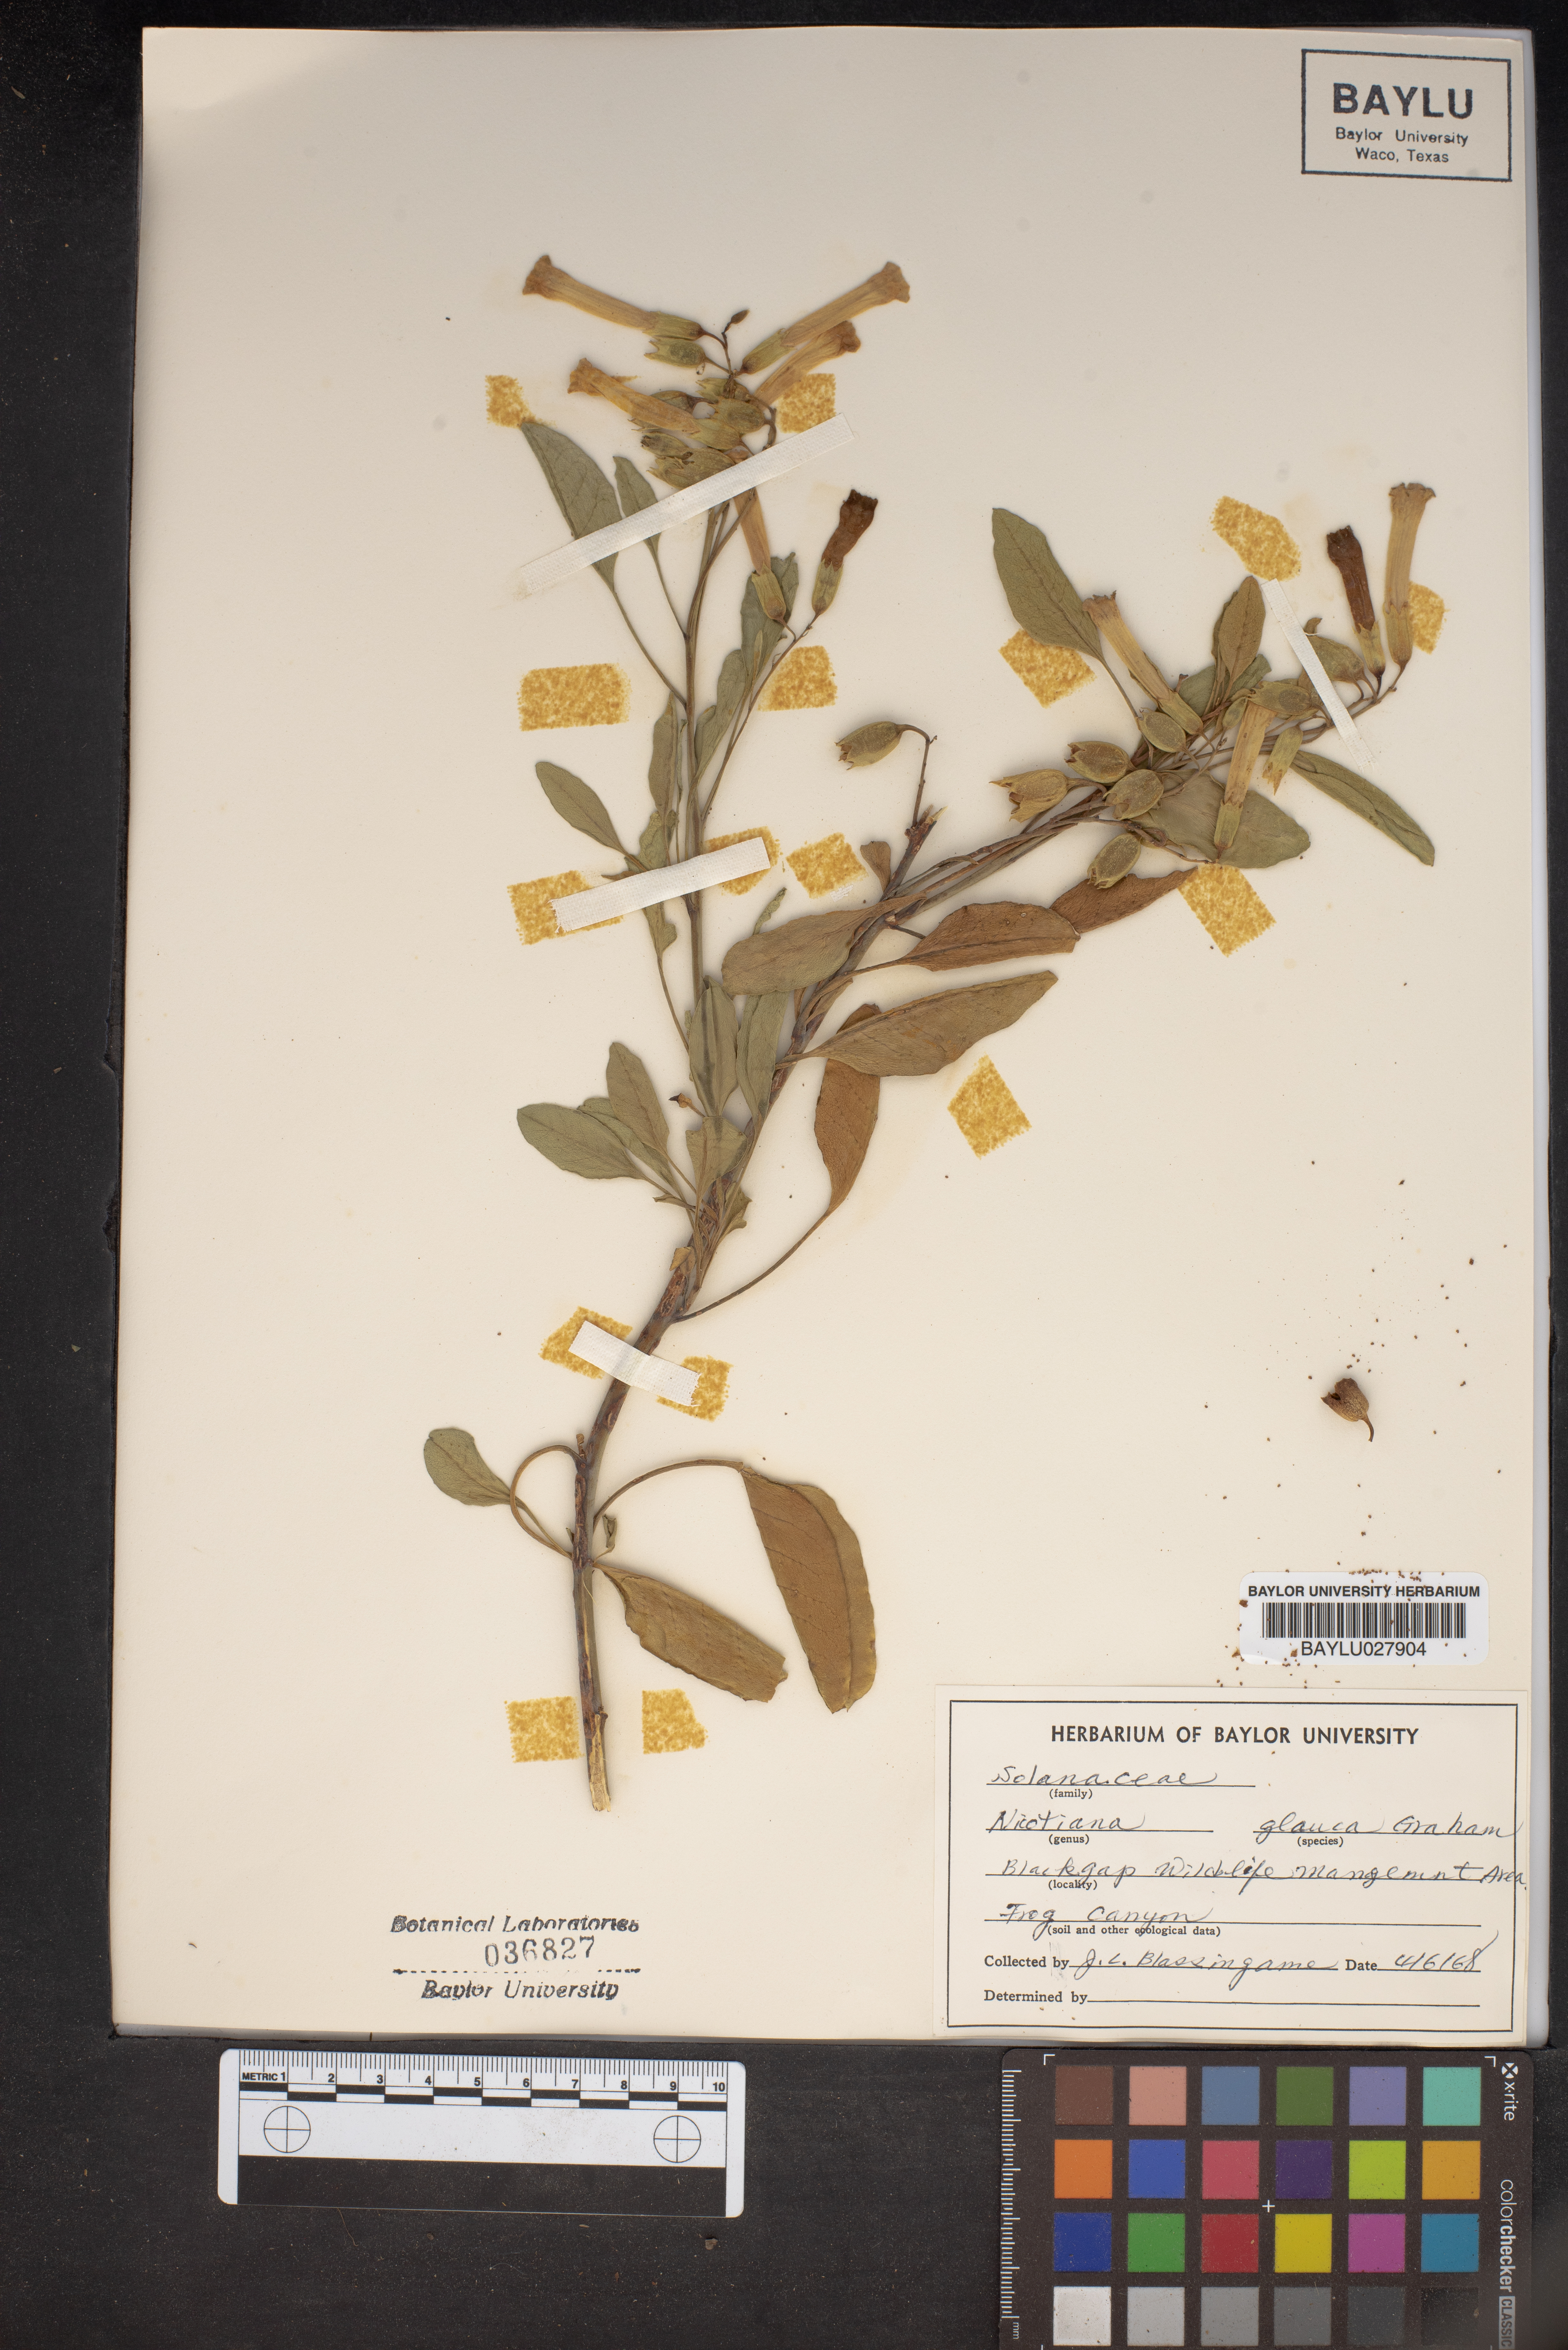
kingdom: Plantae
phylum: Tracheophyta
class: Magnoliopsida
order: Solanales
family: Solanaceae
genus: Nicotiana
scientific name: Nicotiana glauca
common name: Tree tobacco
